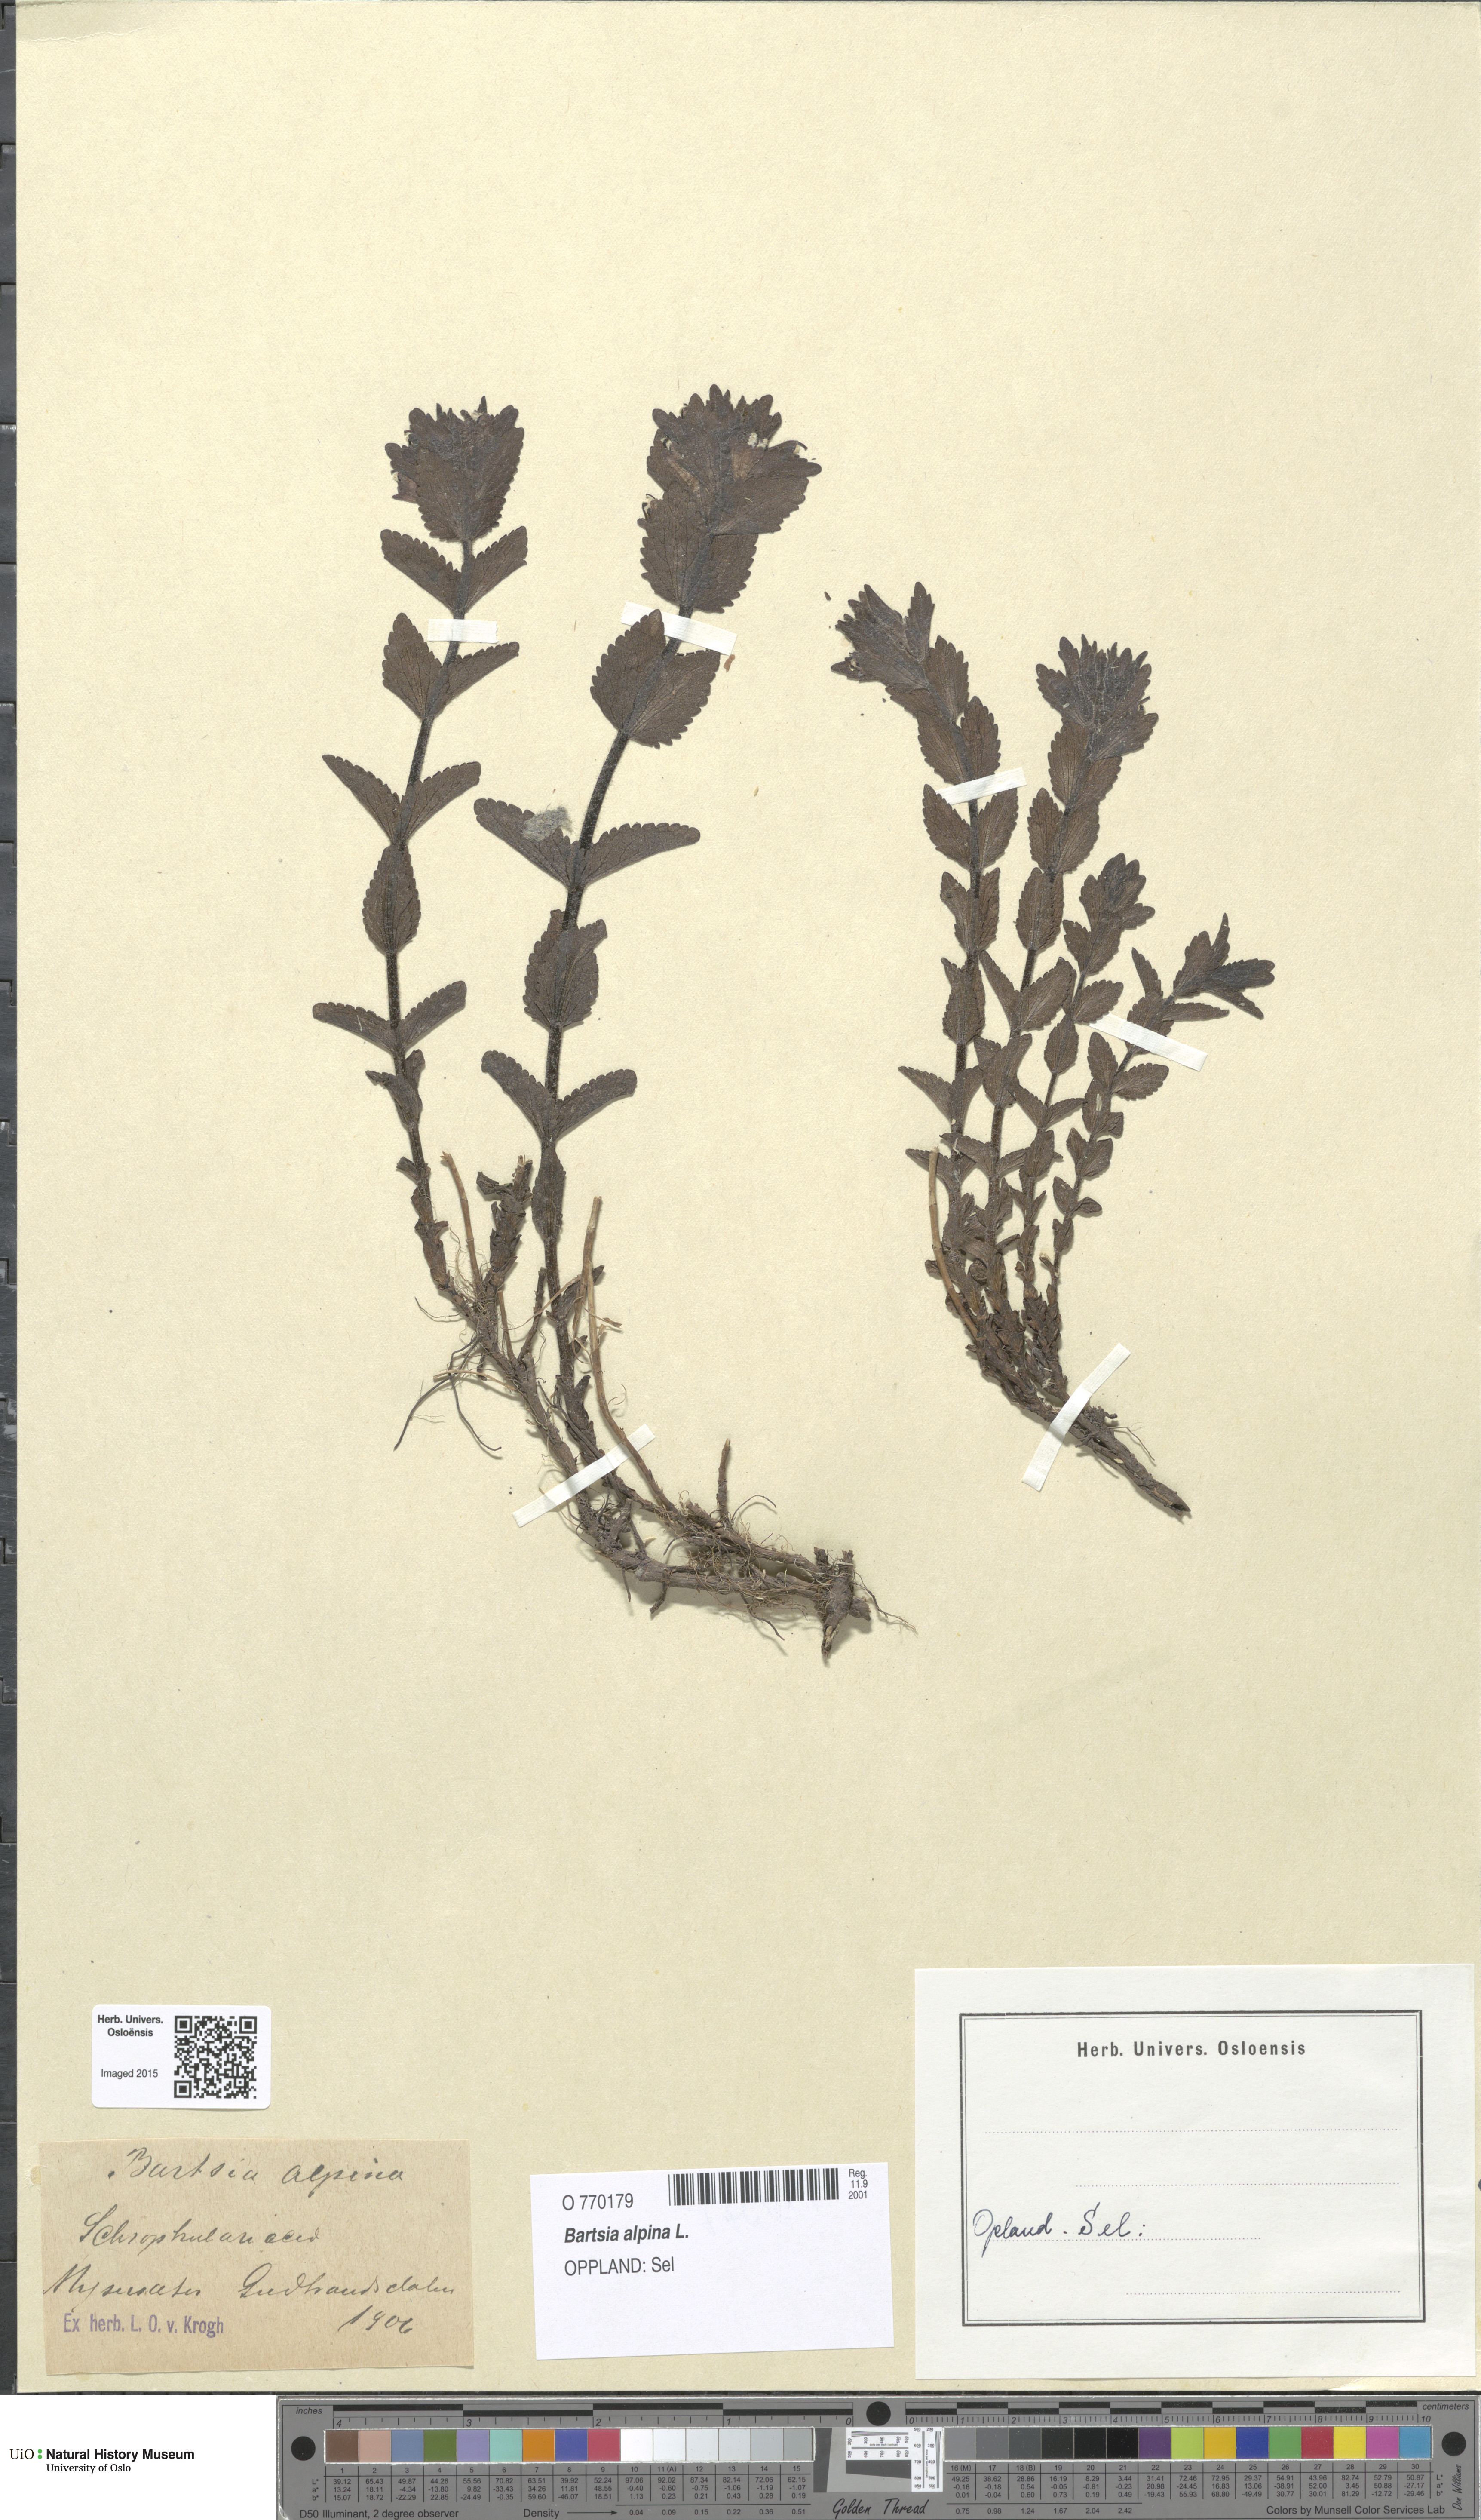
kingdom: Plantae
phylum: Tracheophyta
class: Magnoliopsida
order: Lamiales
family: Orobanchaceae
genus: Bartsia
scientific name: Bartsia alpina
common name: Alpine bartsia
